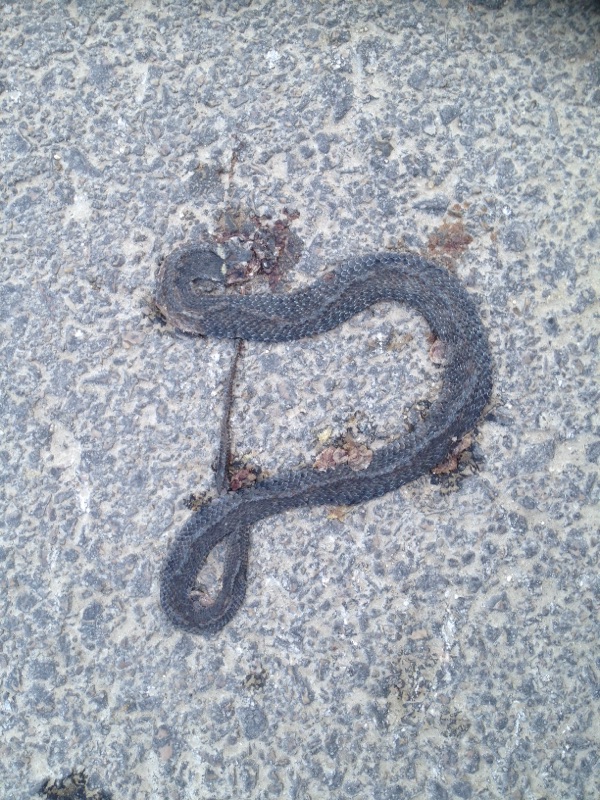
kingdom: Animalia
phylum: Chordata
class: Squamata
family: Colubridae
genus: Natrix
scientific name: Natrix natrix
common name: Grass snake
